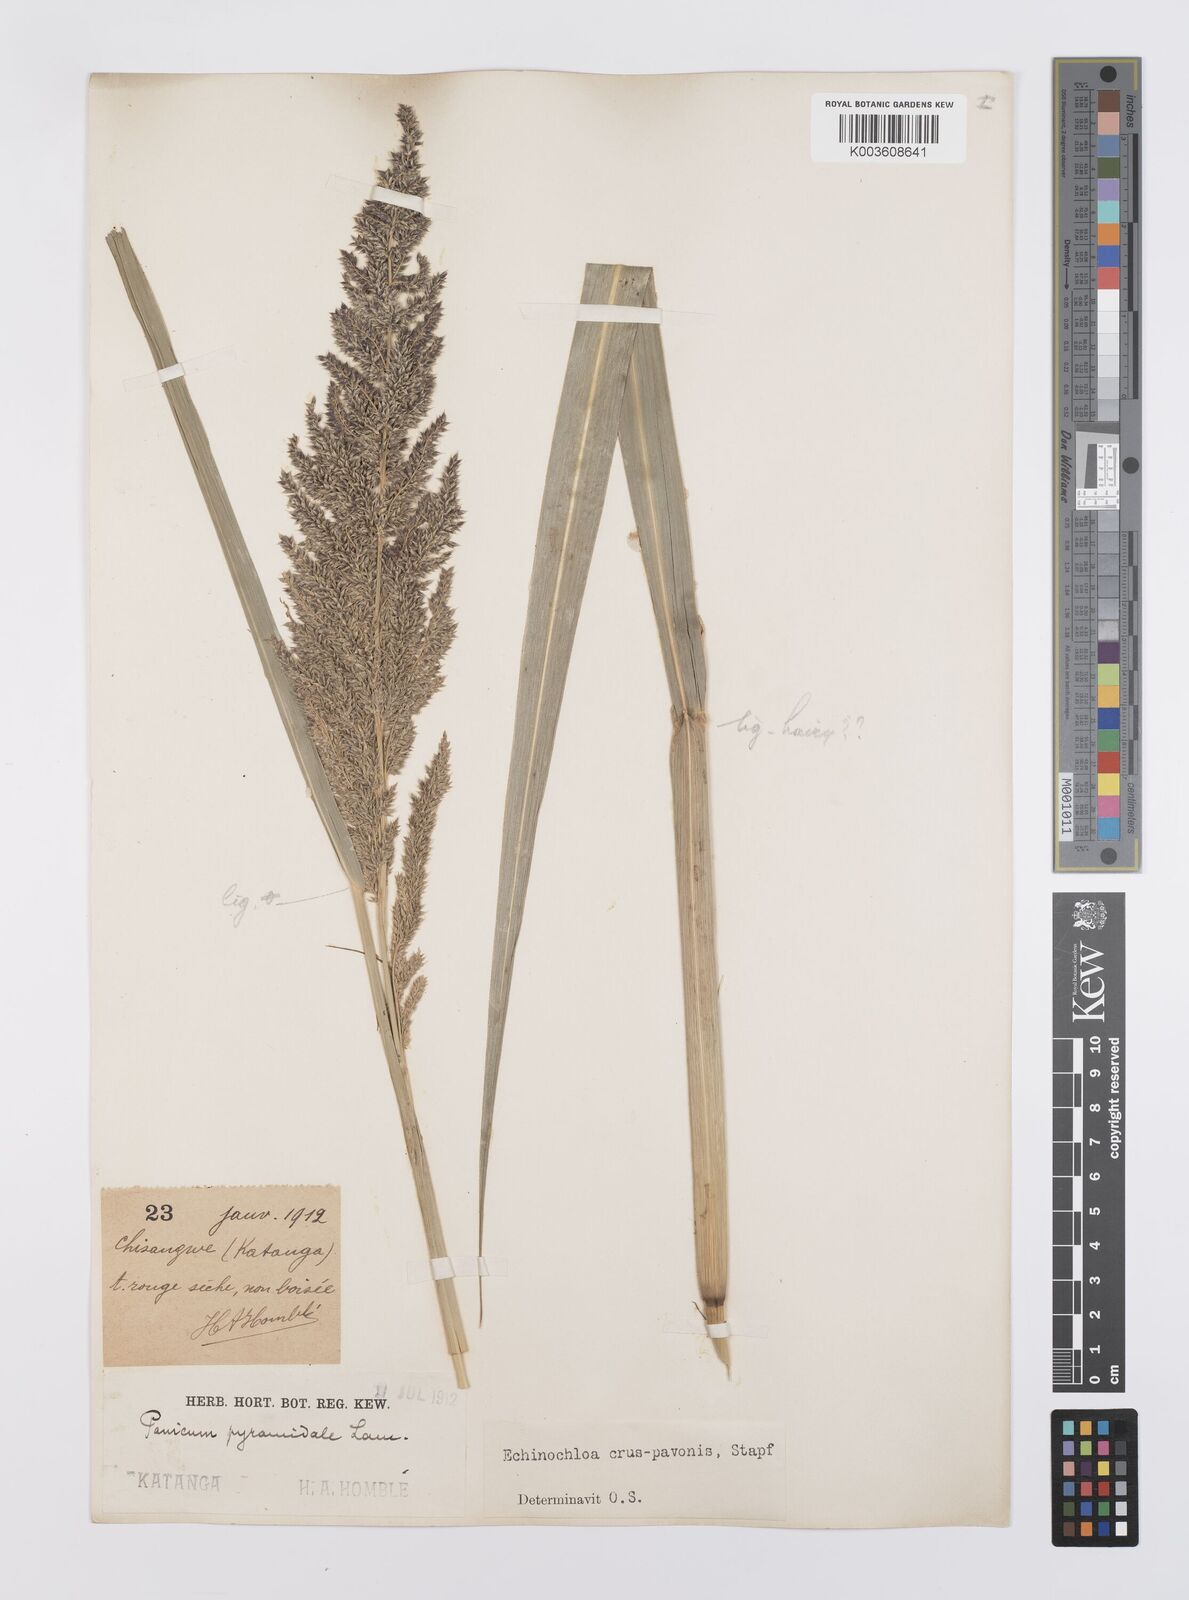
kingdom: Plantae
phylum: Tracheophyta
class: Liliopsida
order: Poales
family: Poaceae
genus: Echinochloa
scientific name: Echinochloa crus-pavonis
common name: Gulf cockspur grass
